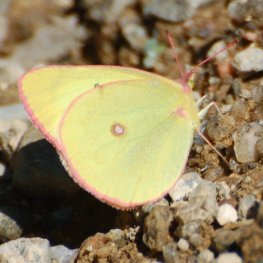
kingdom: Animalia
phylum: Arthropoda
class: Insecta
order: Lepidoptera
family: Pieridae
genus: Colias
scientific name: Colias interior
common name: Pink-edged Sulphur
